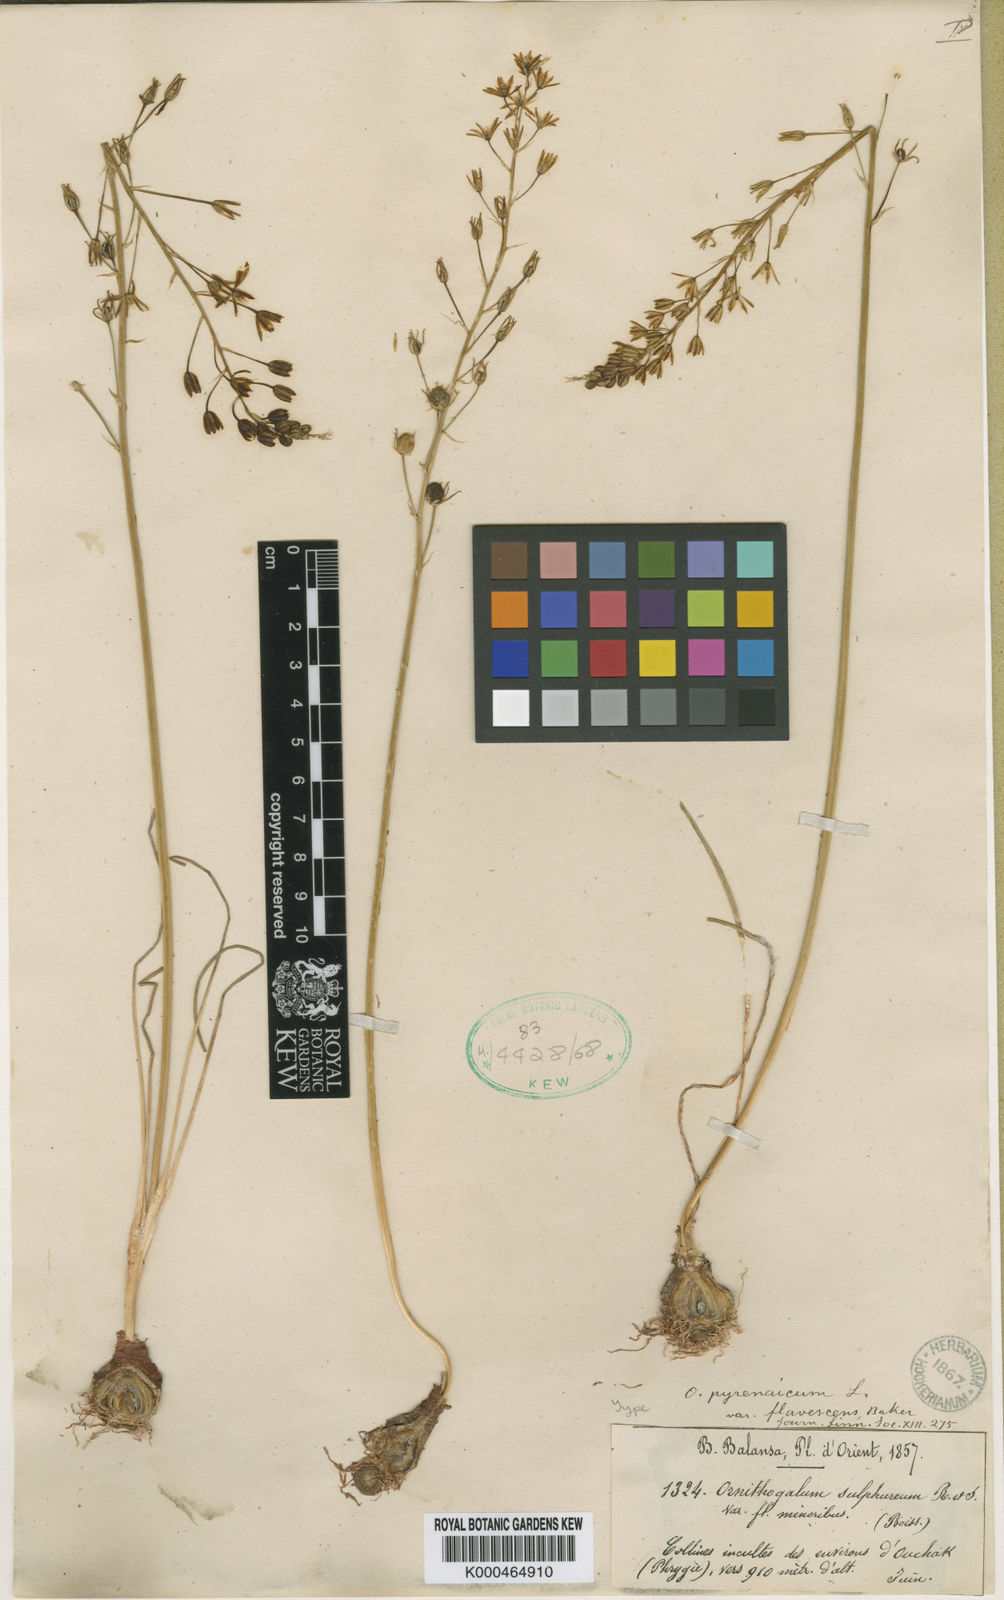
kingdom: Plantae
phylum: Tracheophyta
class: Liliopsida
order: Asparagales
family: Asparagaceae
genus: Ornithogalum
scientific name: Ornithogalum sphaerocarpum
